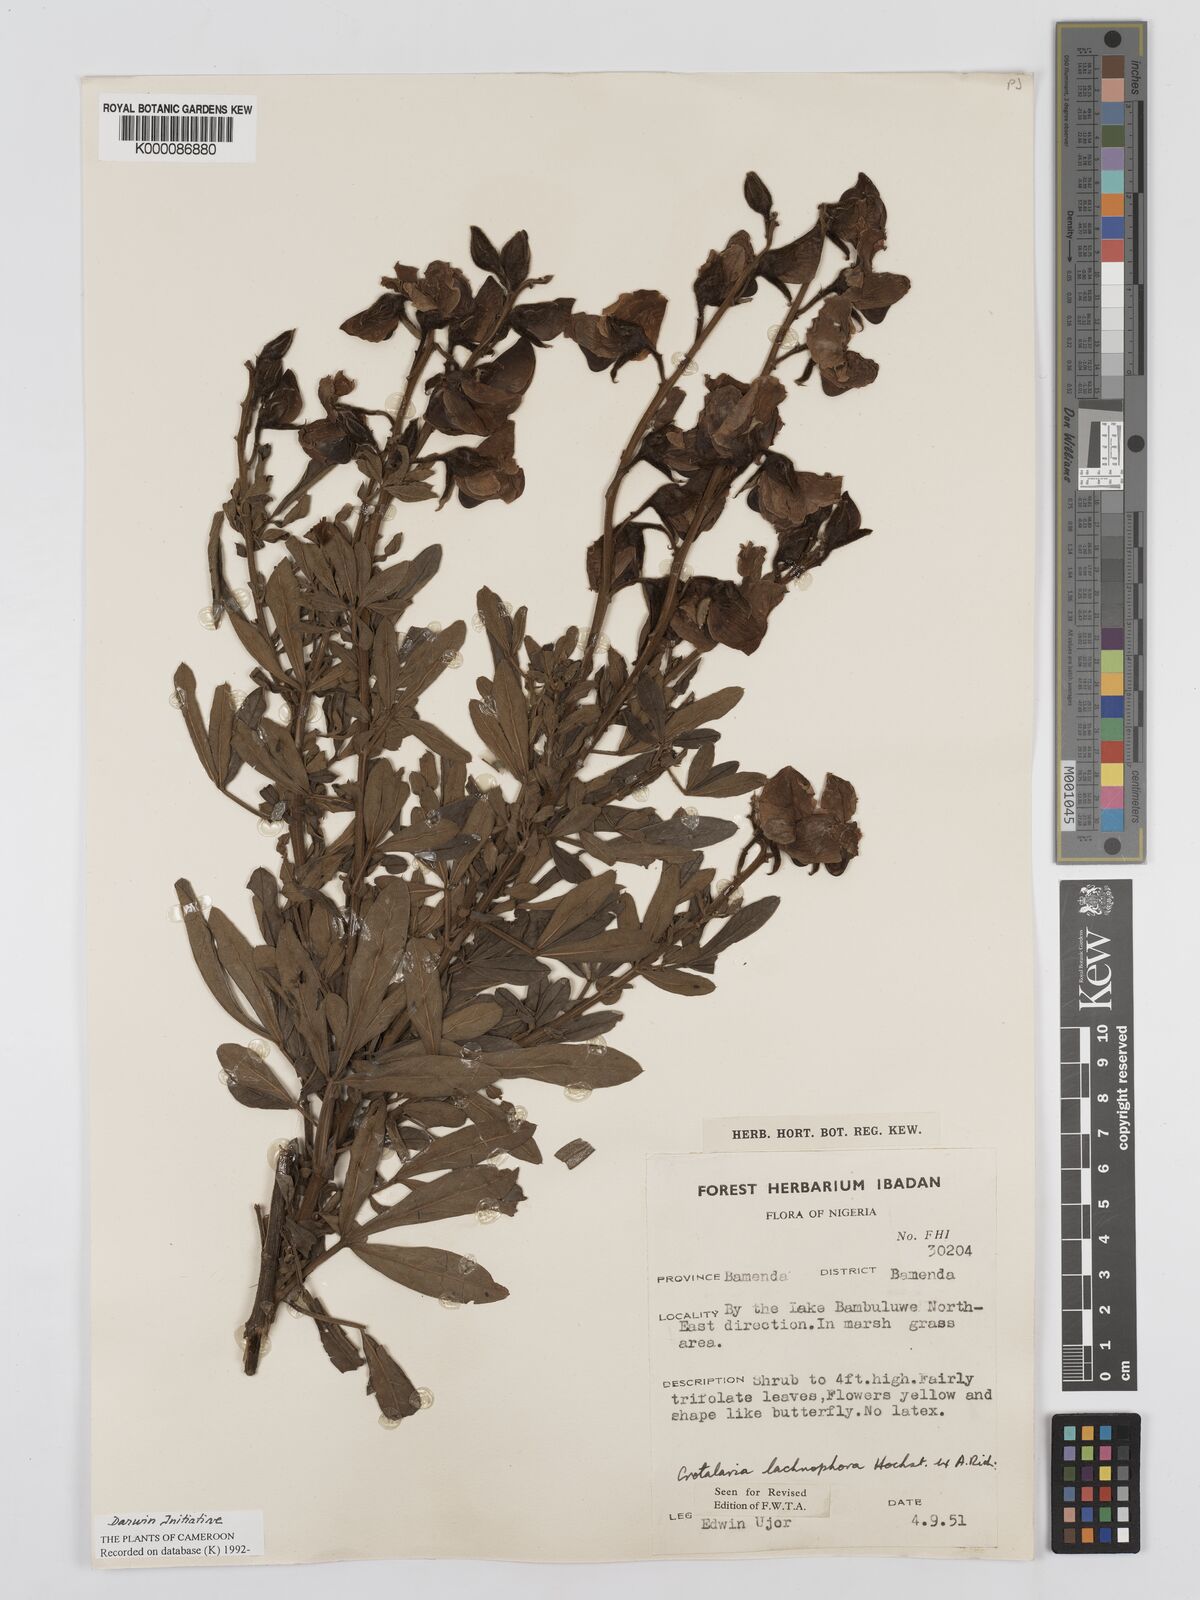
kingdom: Plantae
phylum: Tracheophyta
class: Magnoliopsida
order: Fabales
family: Fabaceae
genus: Crotalaria
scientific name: Crotalaria lachnophora
